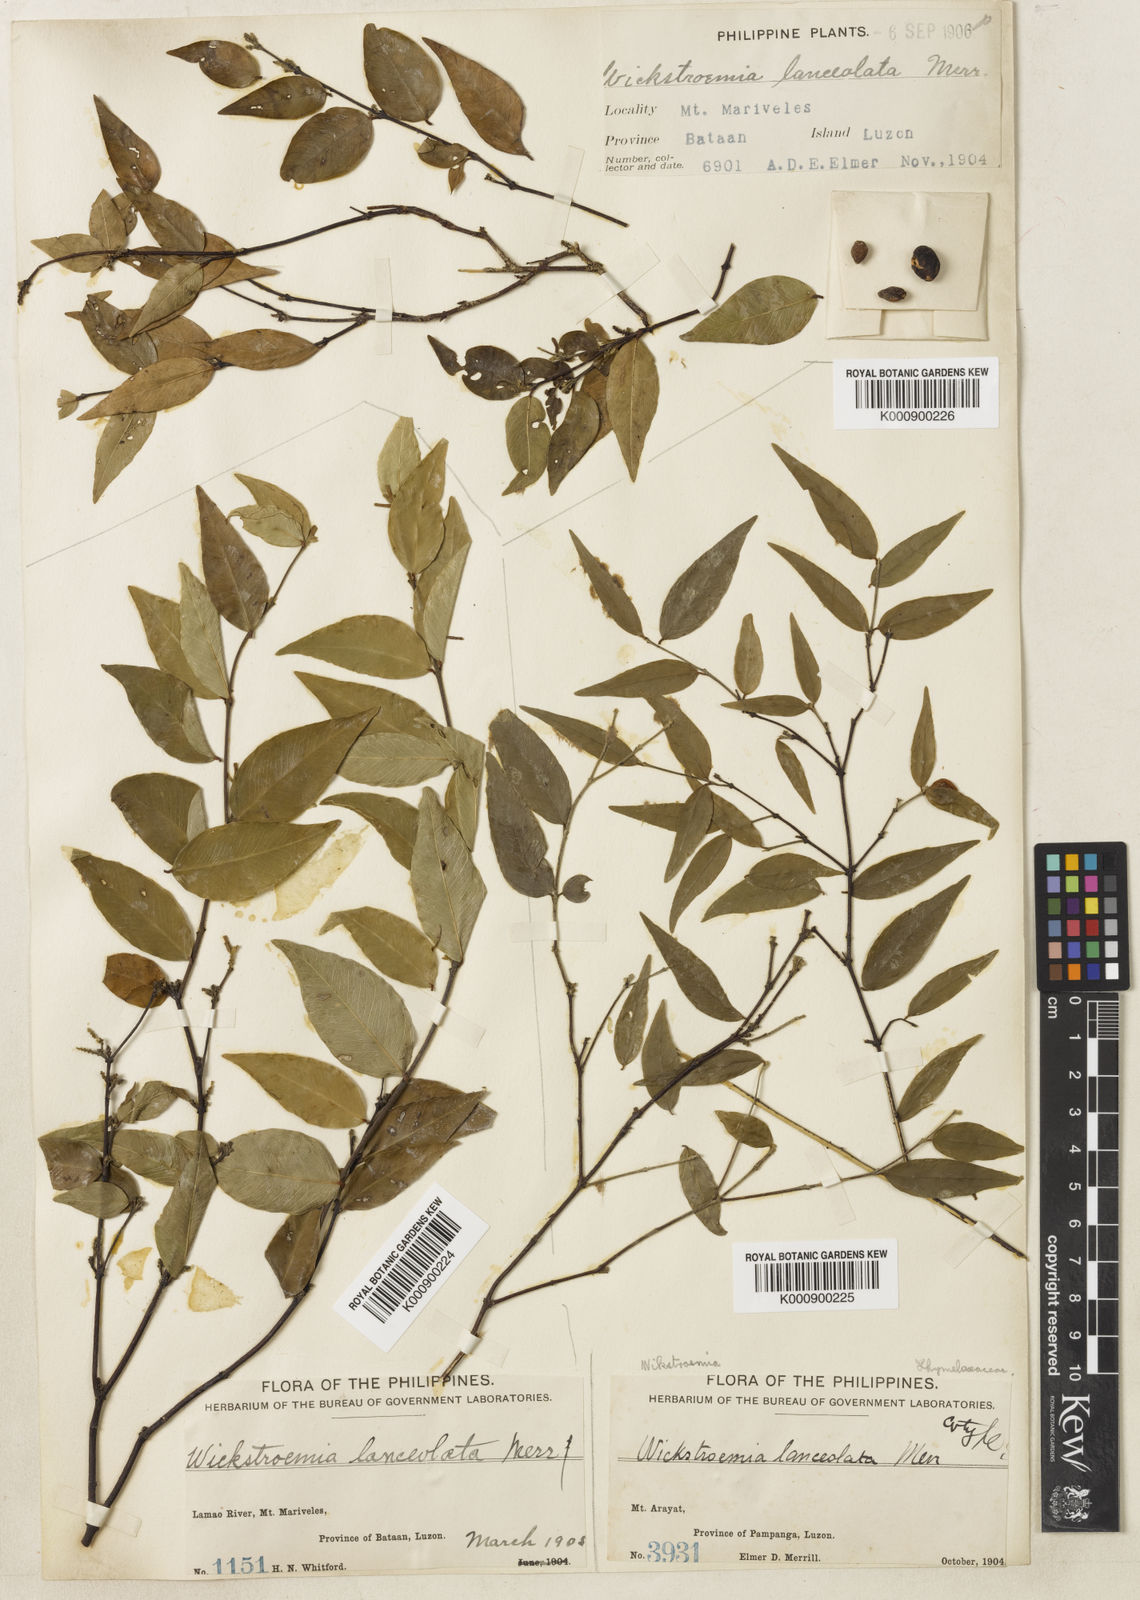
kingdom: Plantae
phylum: Tracheophyta
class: Magnoliopsida
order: Malvales
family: Thymelaeaceae
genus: Wikstroemia
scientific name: Wikstroemia lanceolata
